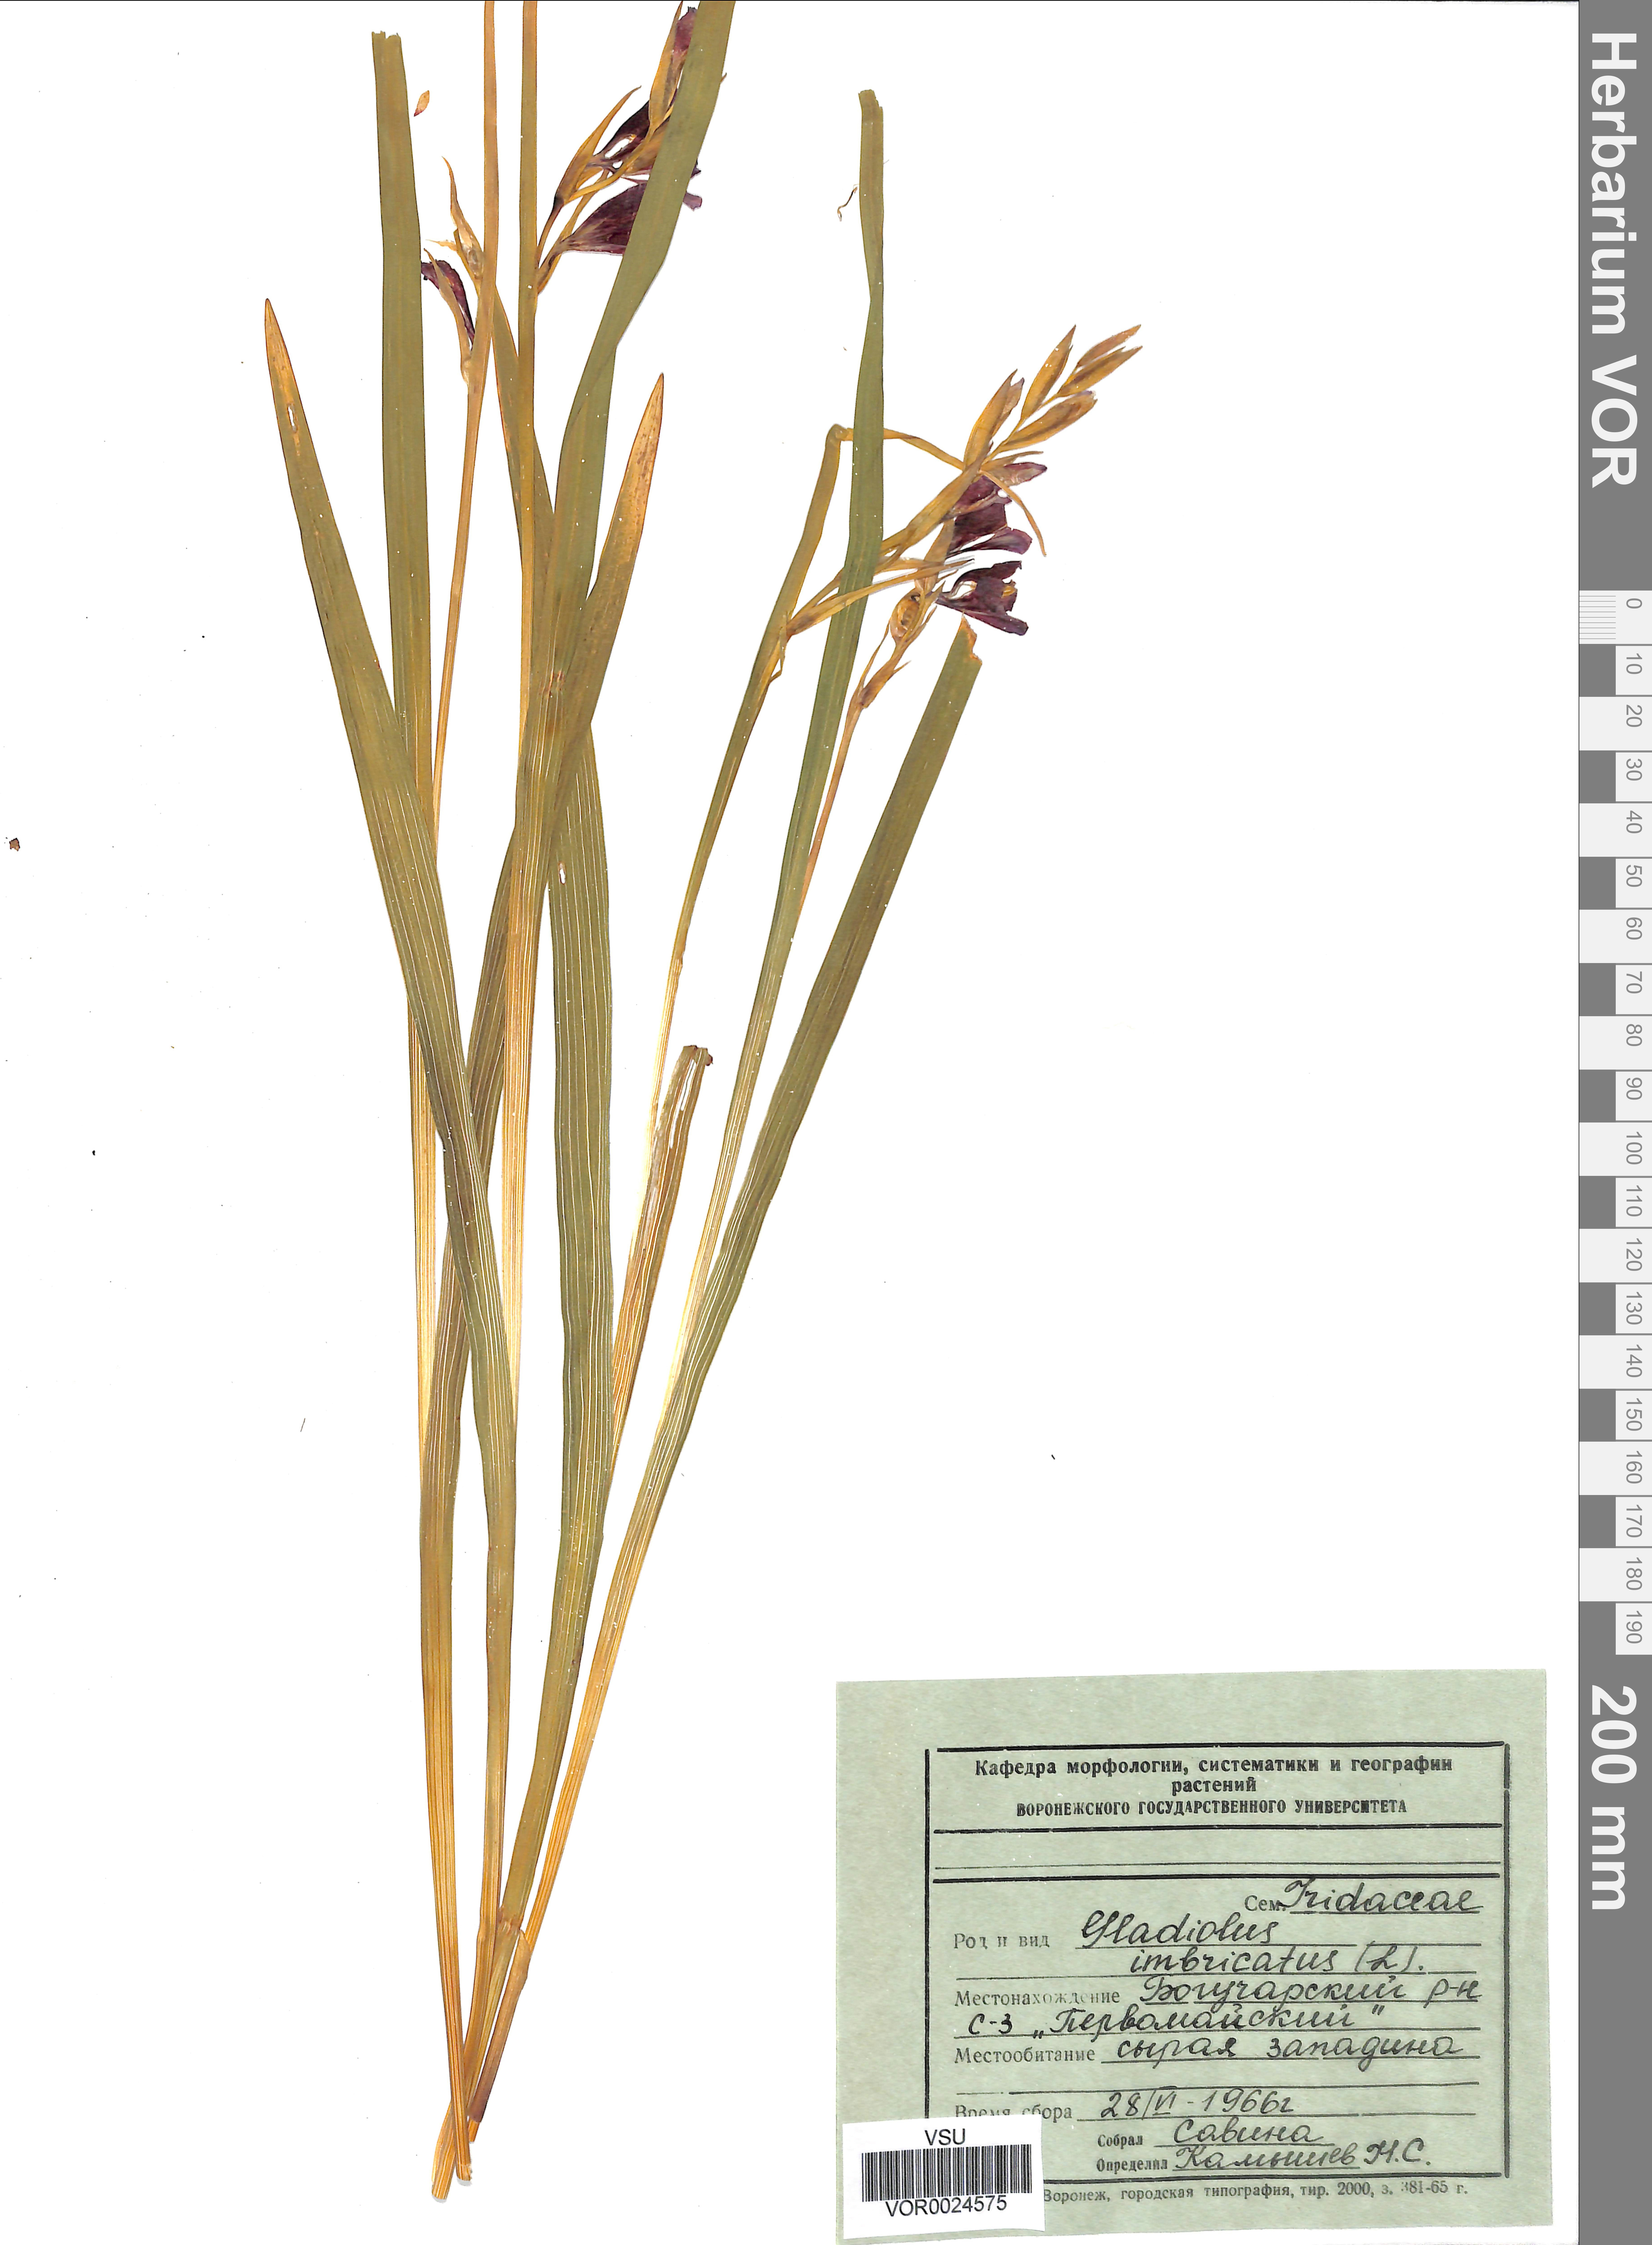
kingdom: Plantae
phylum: Tracheophyta
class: Liliopsida
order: Asparagales
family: Iridaceae
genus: Gladiolus
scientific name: Gladiolus tenuis
